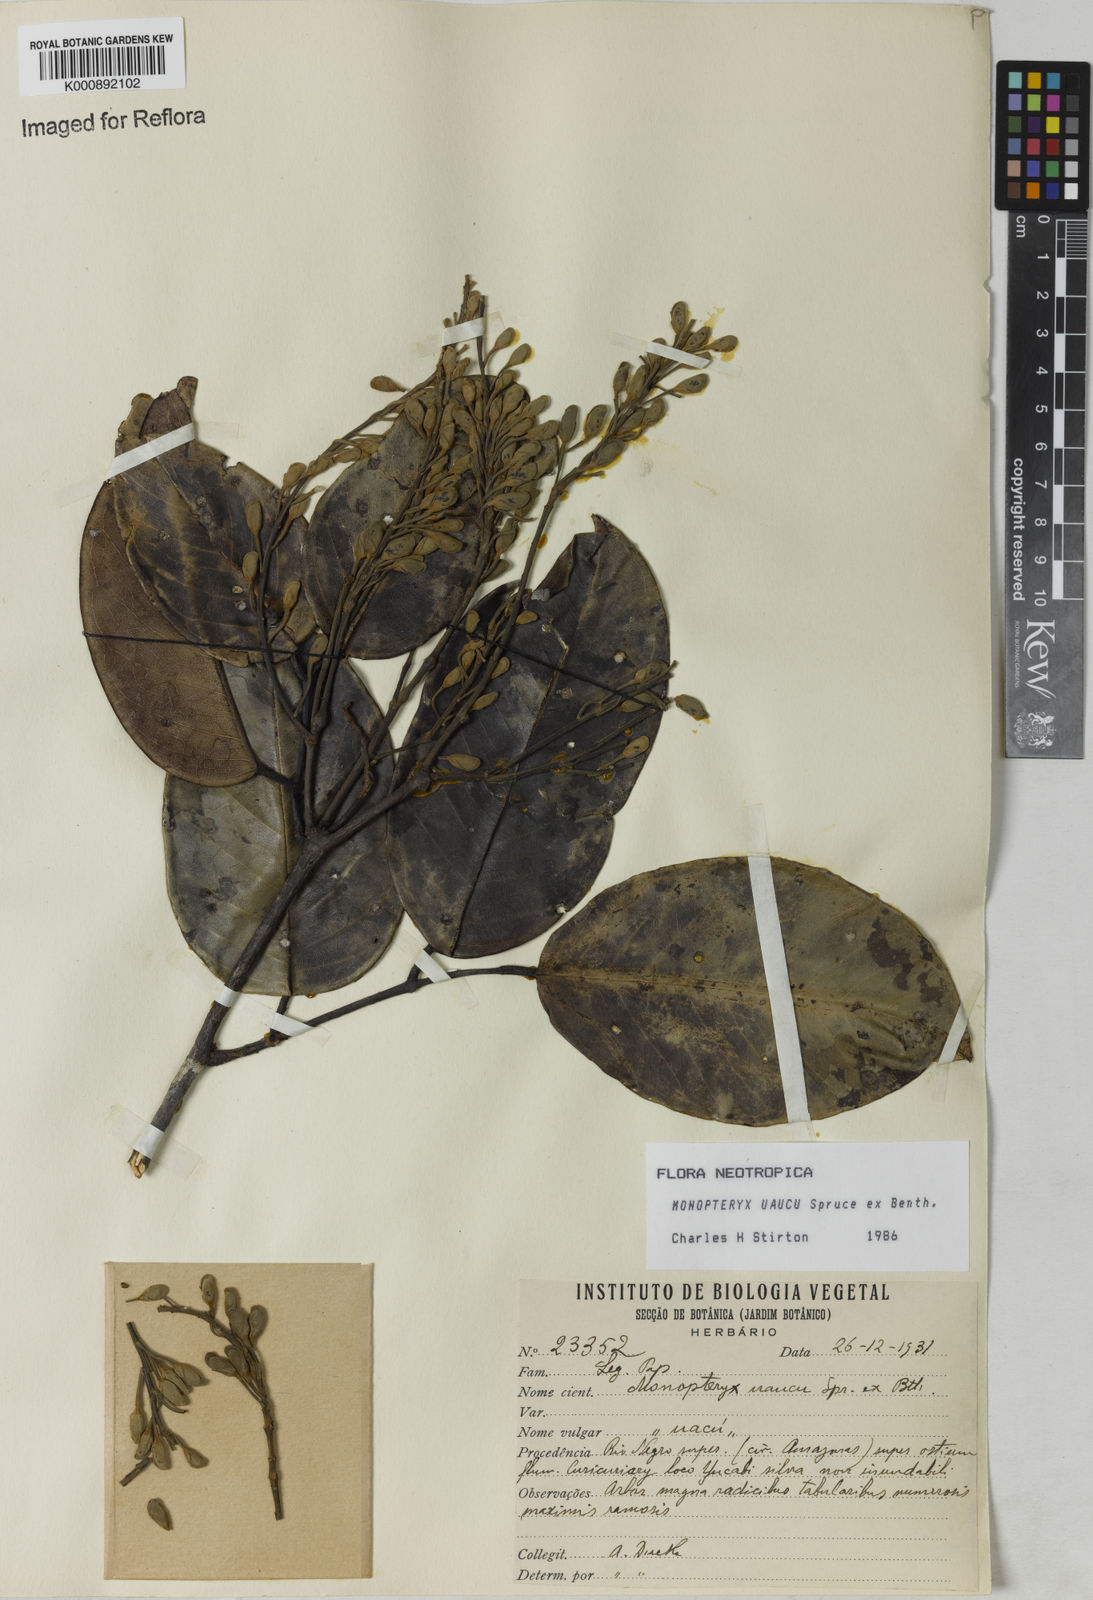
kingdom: Plantae
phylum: Tracheophyta
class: Magnoliopsida
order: Fabales
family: Fabaceae
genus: Monopteryx
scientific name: Monopteryx uaucu
